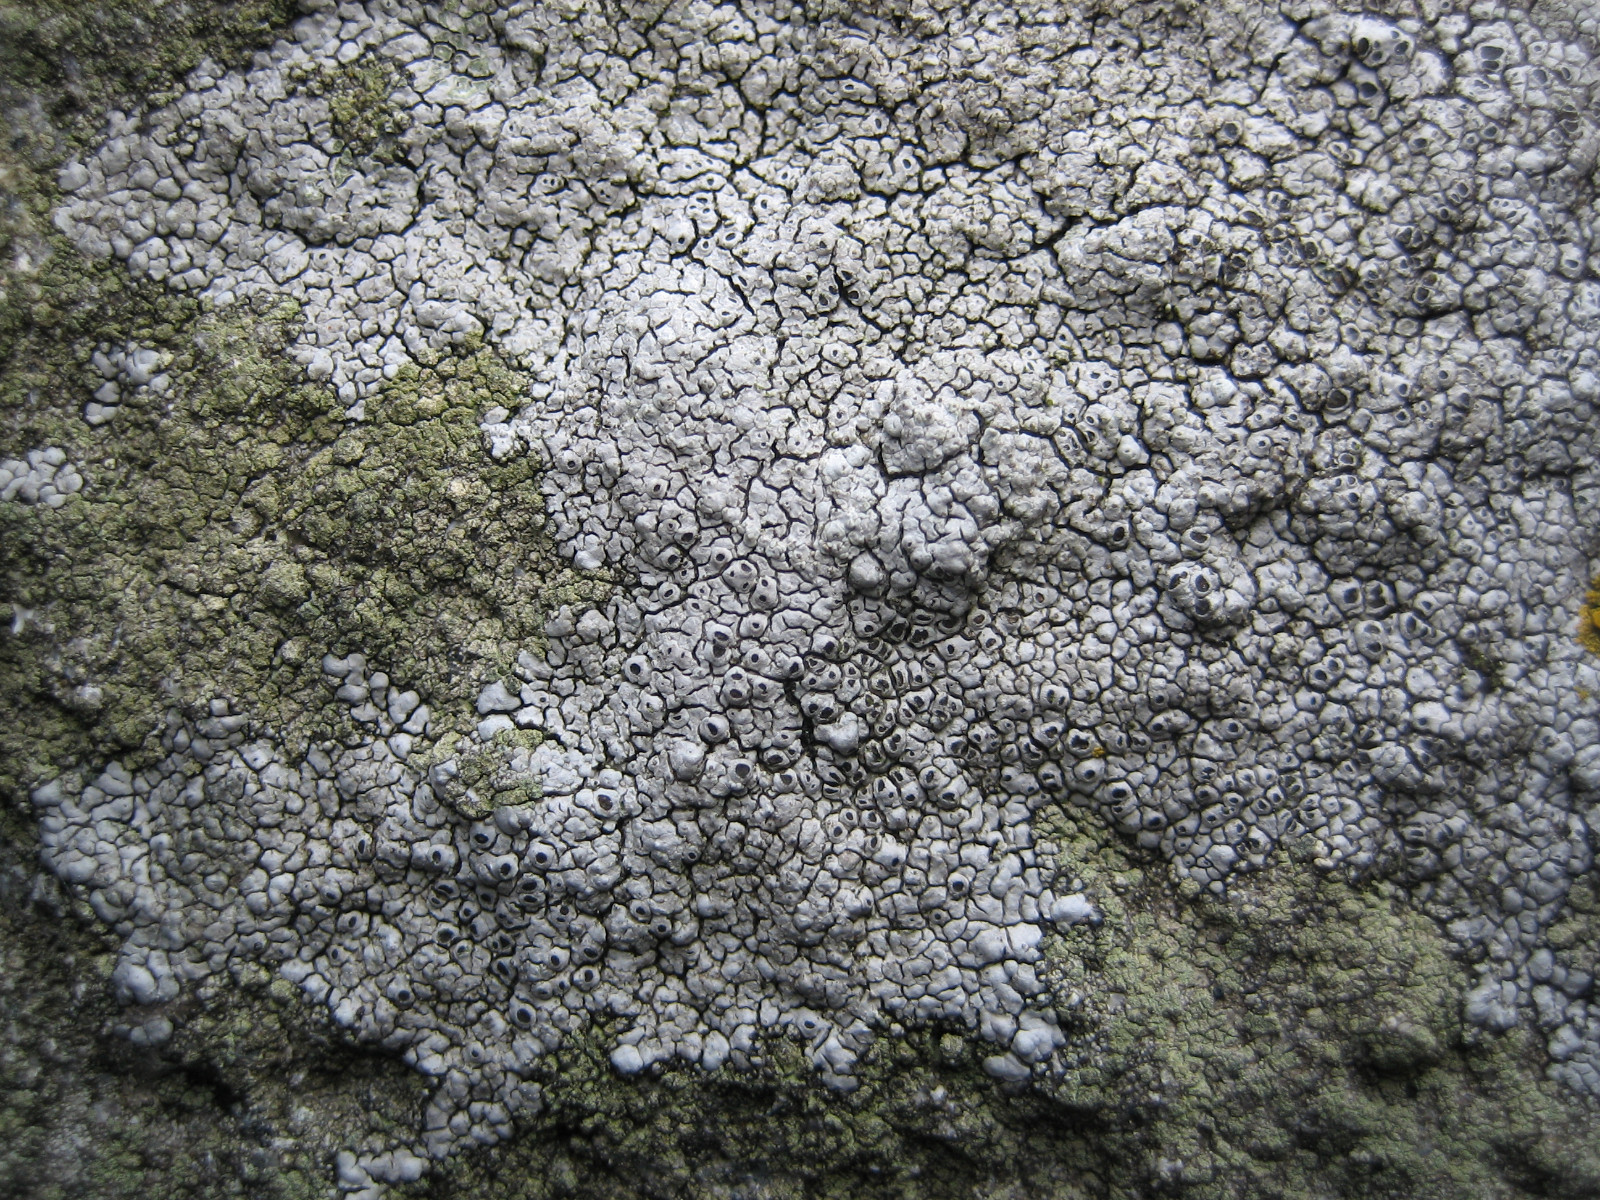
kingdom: Fungi
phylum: Ascomycota
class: Lecanoromycetes
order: Pertusariales
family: Megasporaceae
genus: Circinaria
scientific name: Circinaria caesiocinerea
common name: fuglestens-hulskivelav
